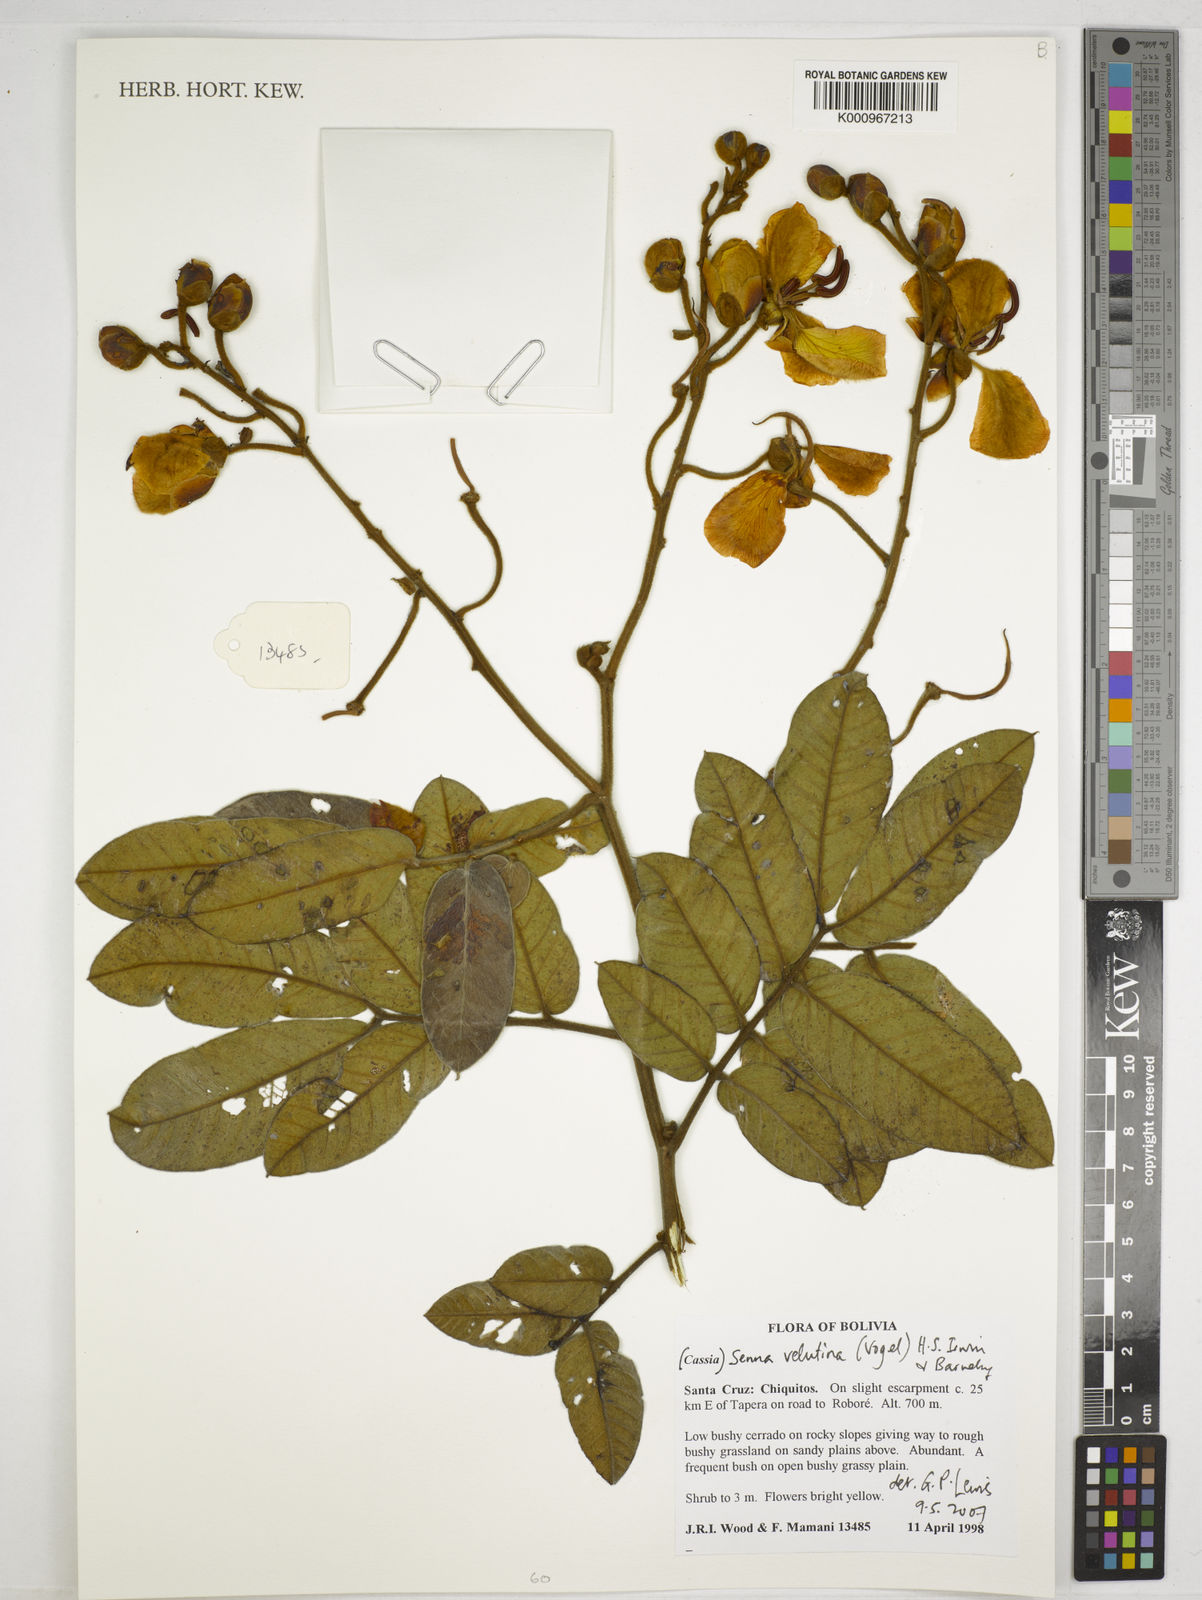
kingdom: Plantae
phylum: Tracheophyta
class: Magnoliopsida
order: Fabales
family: Fabaceae
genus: Senna
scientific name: Senna velutina
